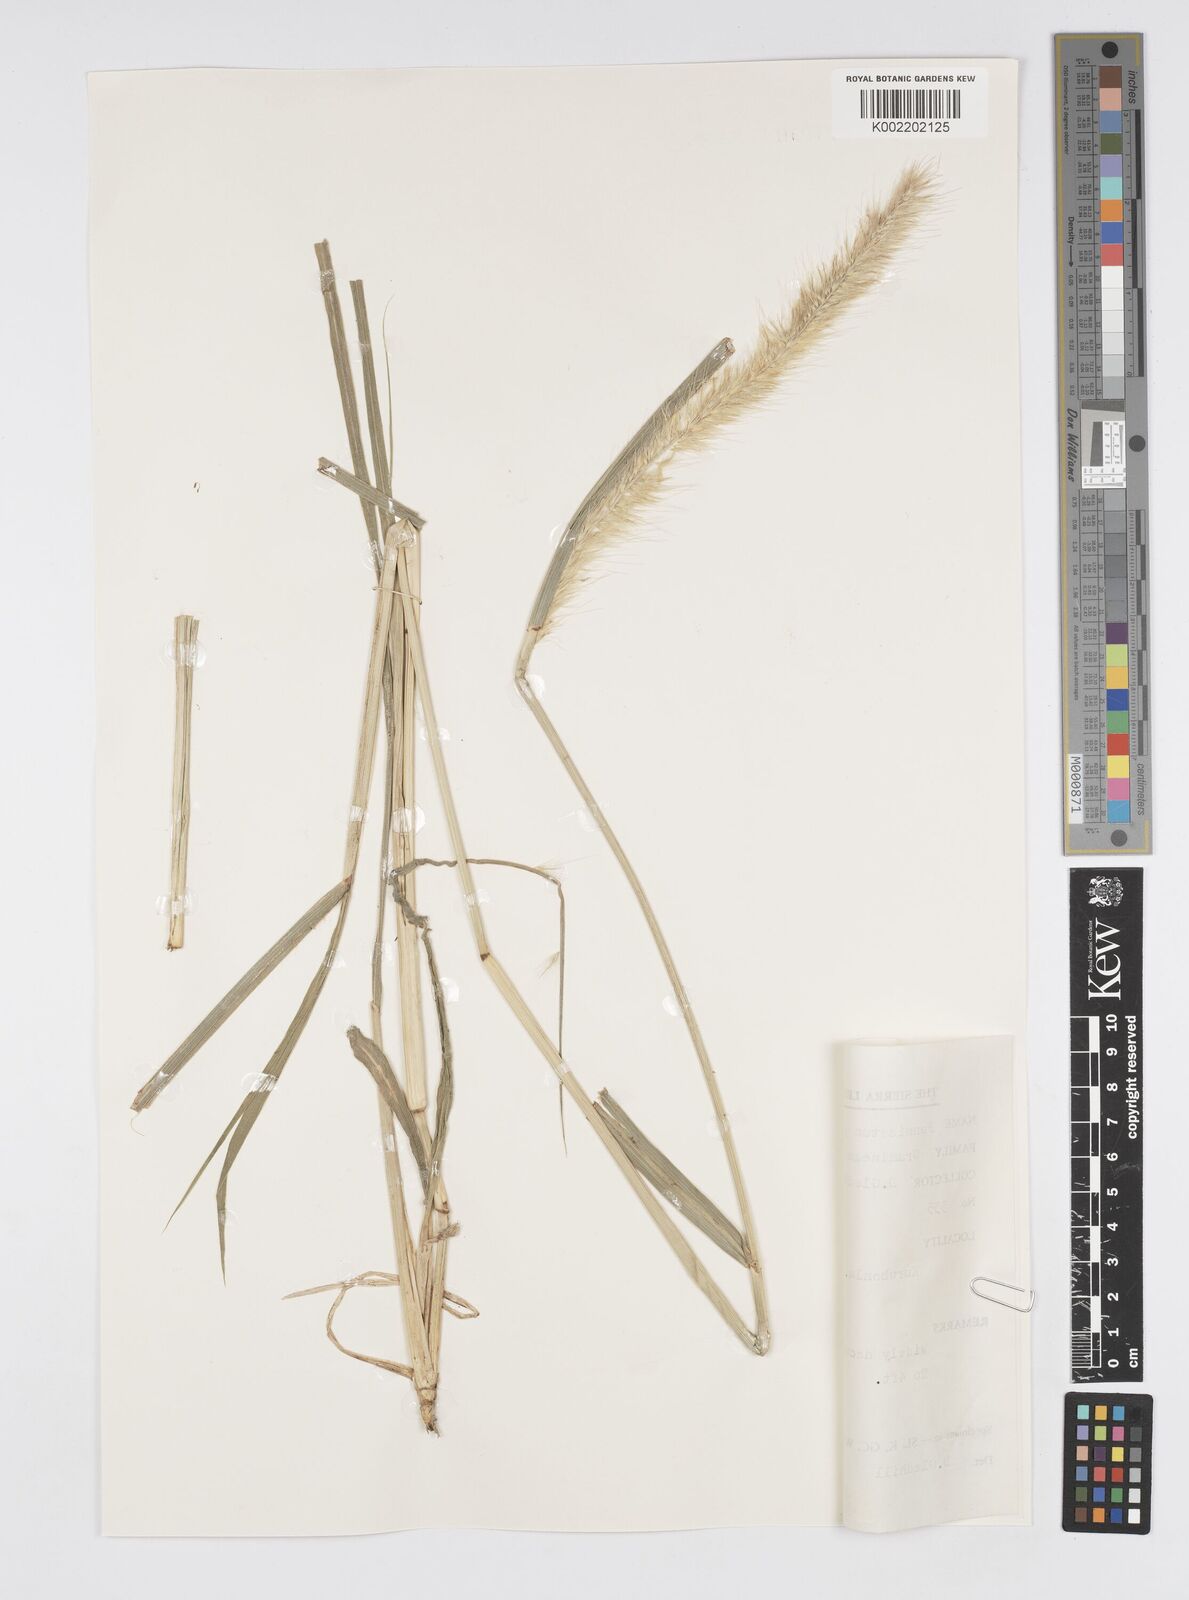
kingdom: Plantae
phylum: Tracheophyta
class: Liliopsida
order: Poales
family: Poaceae
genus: Cenchrus
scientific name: Cenchrus purpureus
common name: Elephant grass
